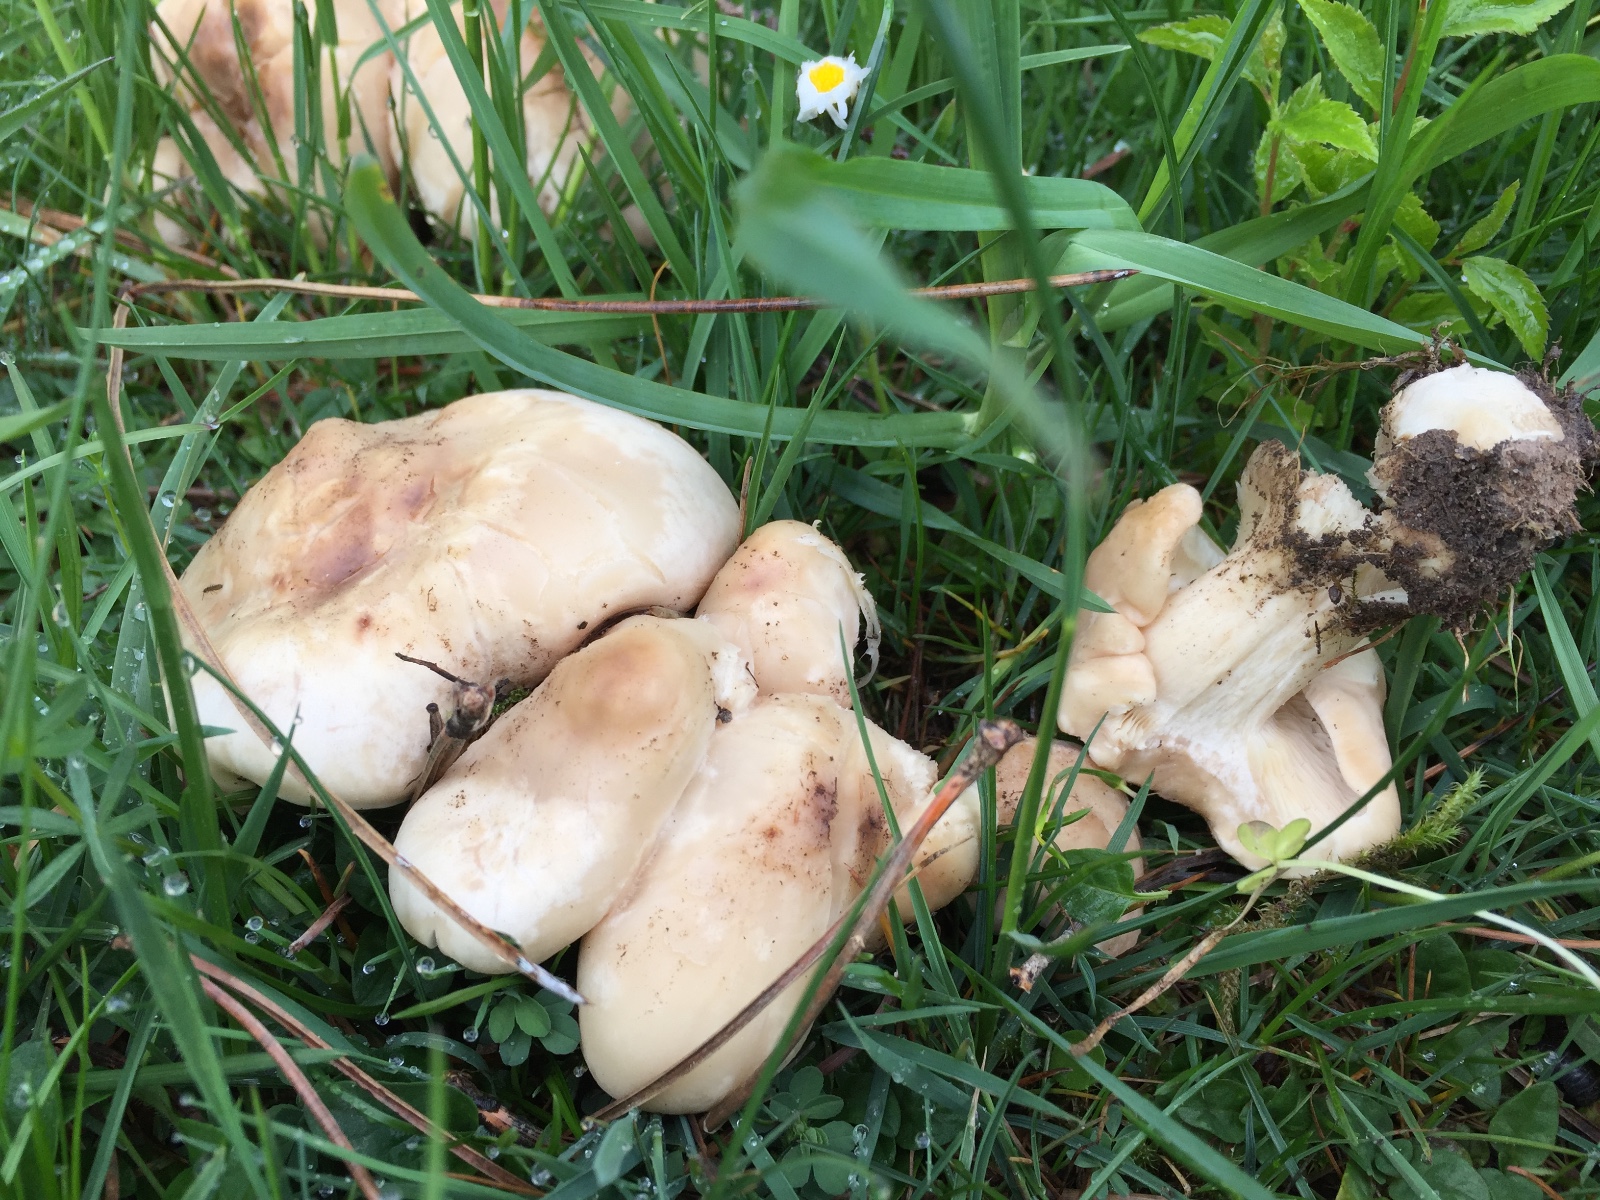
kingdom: Fungi
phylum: Basidiomycota
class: Agaricomycetes
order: Agaricales
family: Lyophyllaceae
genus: Calocybe
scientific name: Calocybe gambosa
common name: vårmusseron
